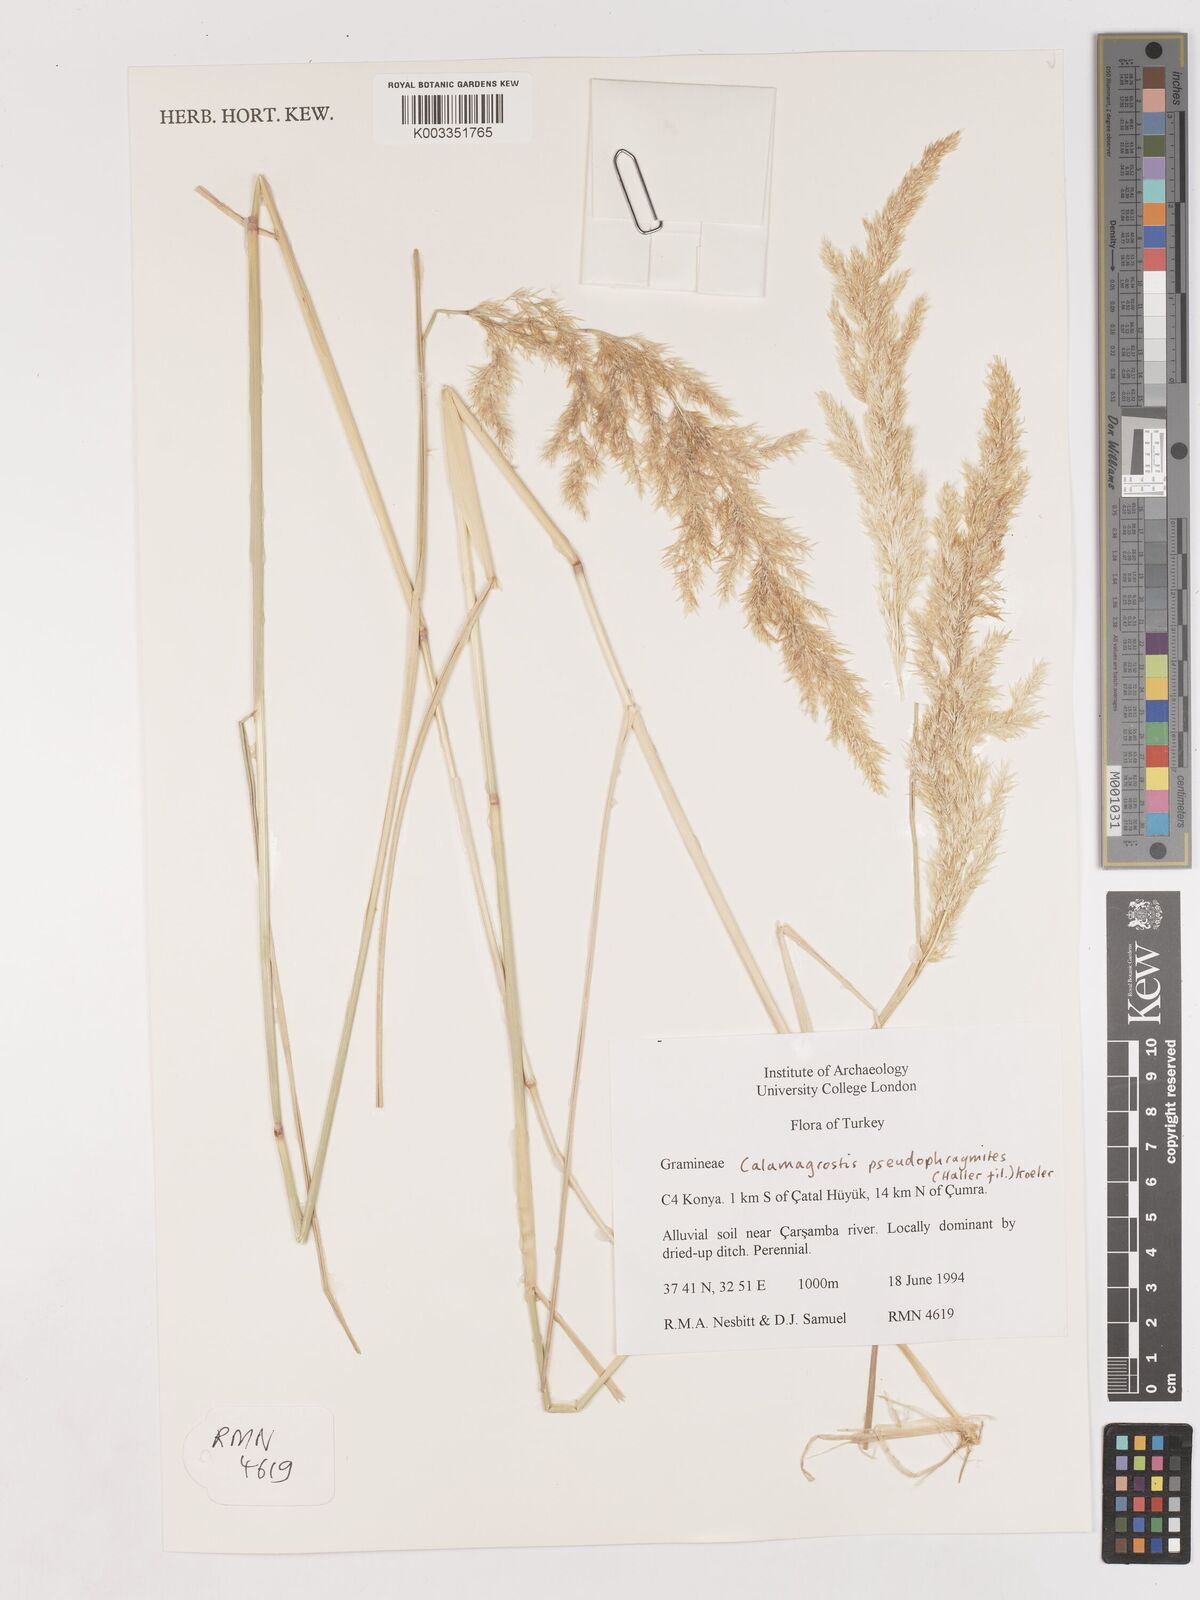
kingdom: Plantae
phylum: Tracheophyta
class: Liliopsida
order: Poales
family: Poaceae
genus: Calamagrostis
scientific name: Calamagrostis pseudophragmites
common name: Coastal small-reed
